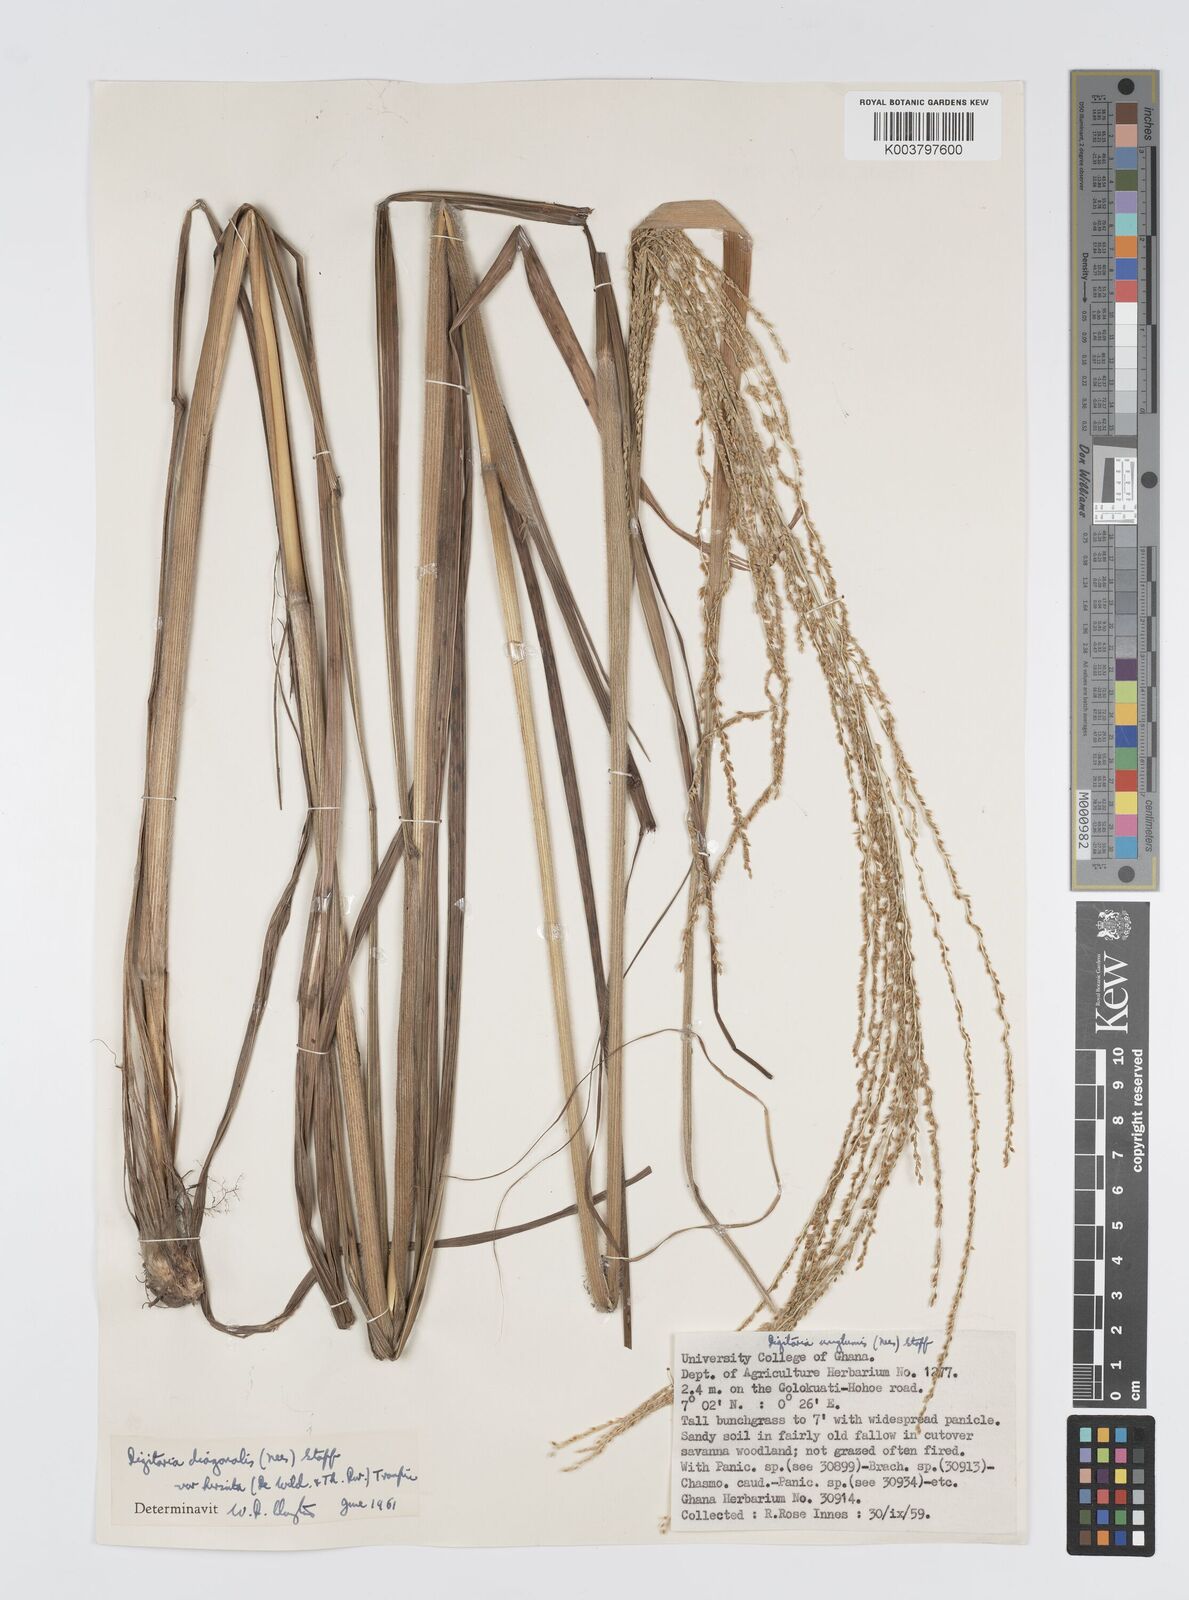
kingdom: Plantae
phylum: Tracheophyta
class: Liliopsida
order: Poales
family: Poaceae
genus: Digitaria
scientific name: Digitaria diagonalis
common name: Brown-seed finger grass
